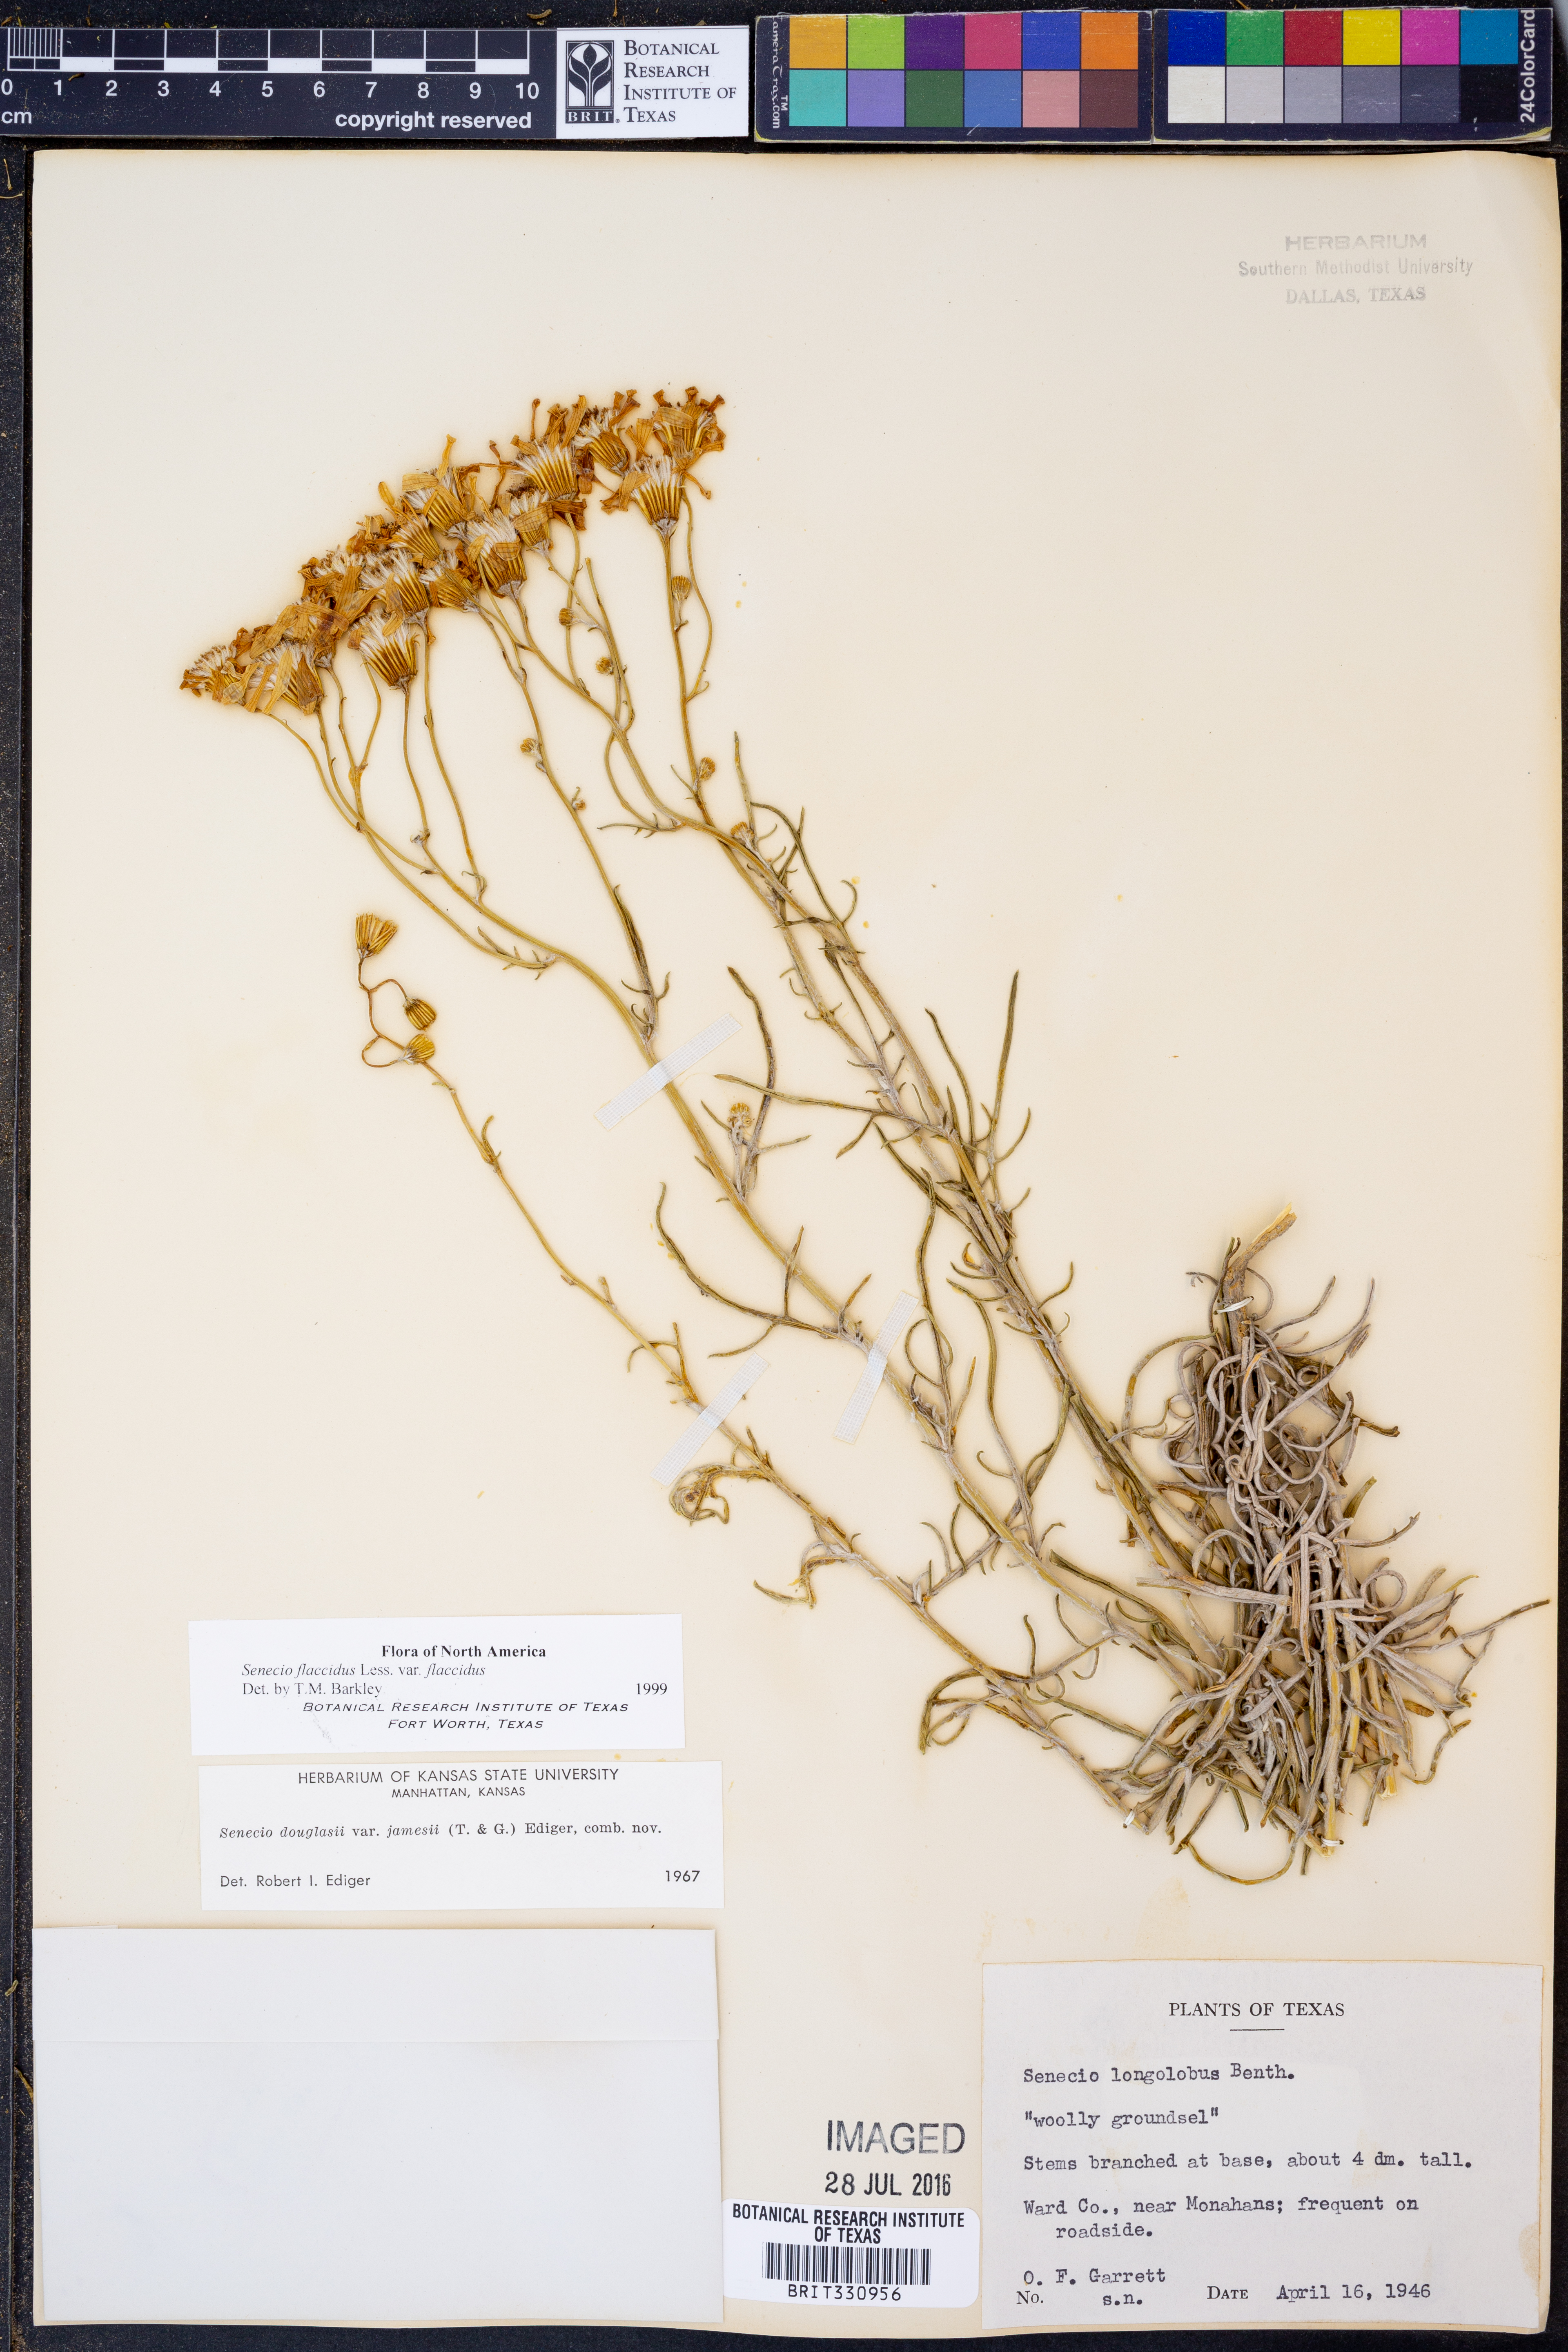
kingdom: Plantae
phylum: Tracheophyta
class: Magnoliopsida
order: Asterales
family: Asteraceae
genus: Senecio
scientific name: Senecio flaccidus
